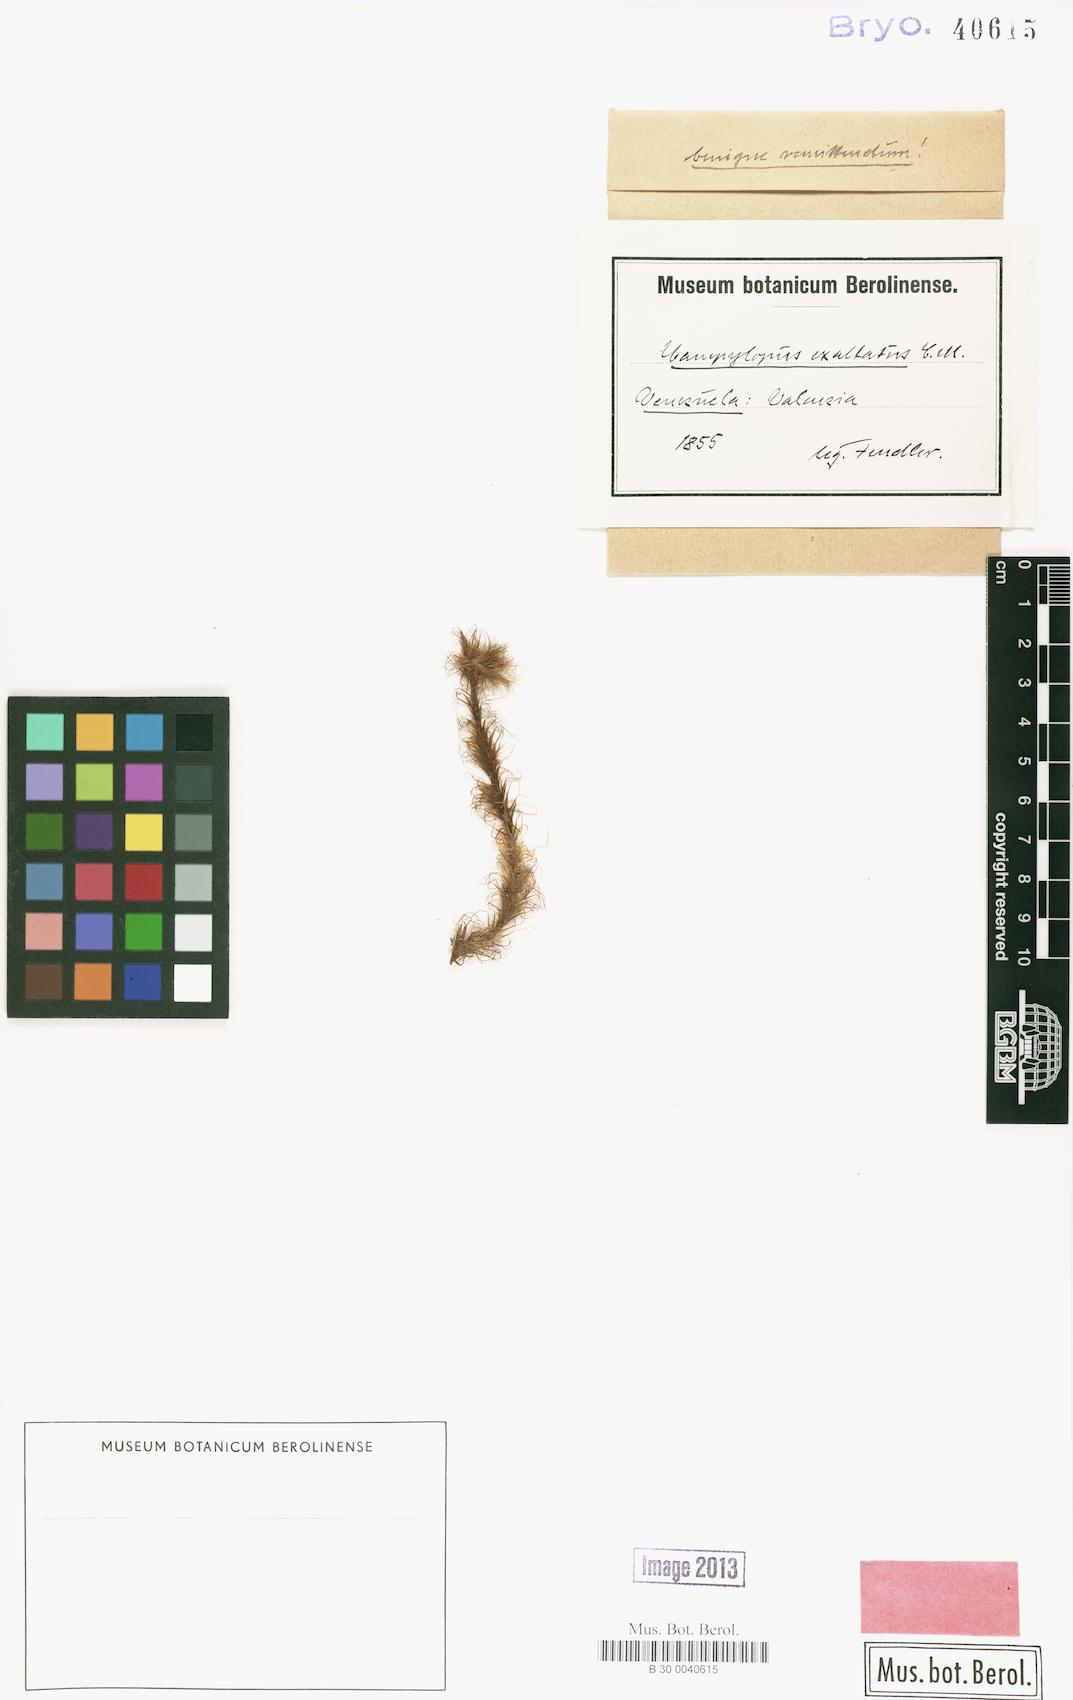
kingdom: Plantae
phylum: Bryophyta
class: Bryopsida
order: Dicranales
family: Leucobryaceae
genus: Campylopus
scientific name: Campylopus lamellinervis
